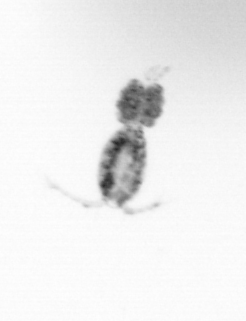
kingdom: Animalia
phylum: Arthropoda
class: Copepoda
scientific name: Copepoda
